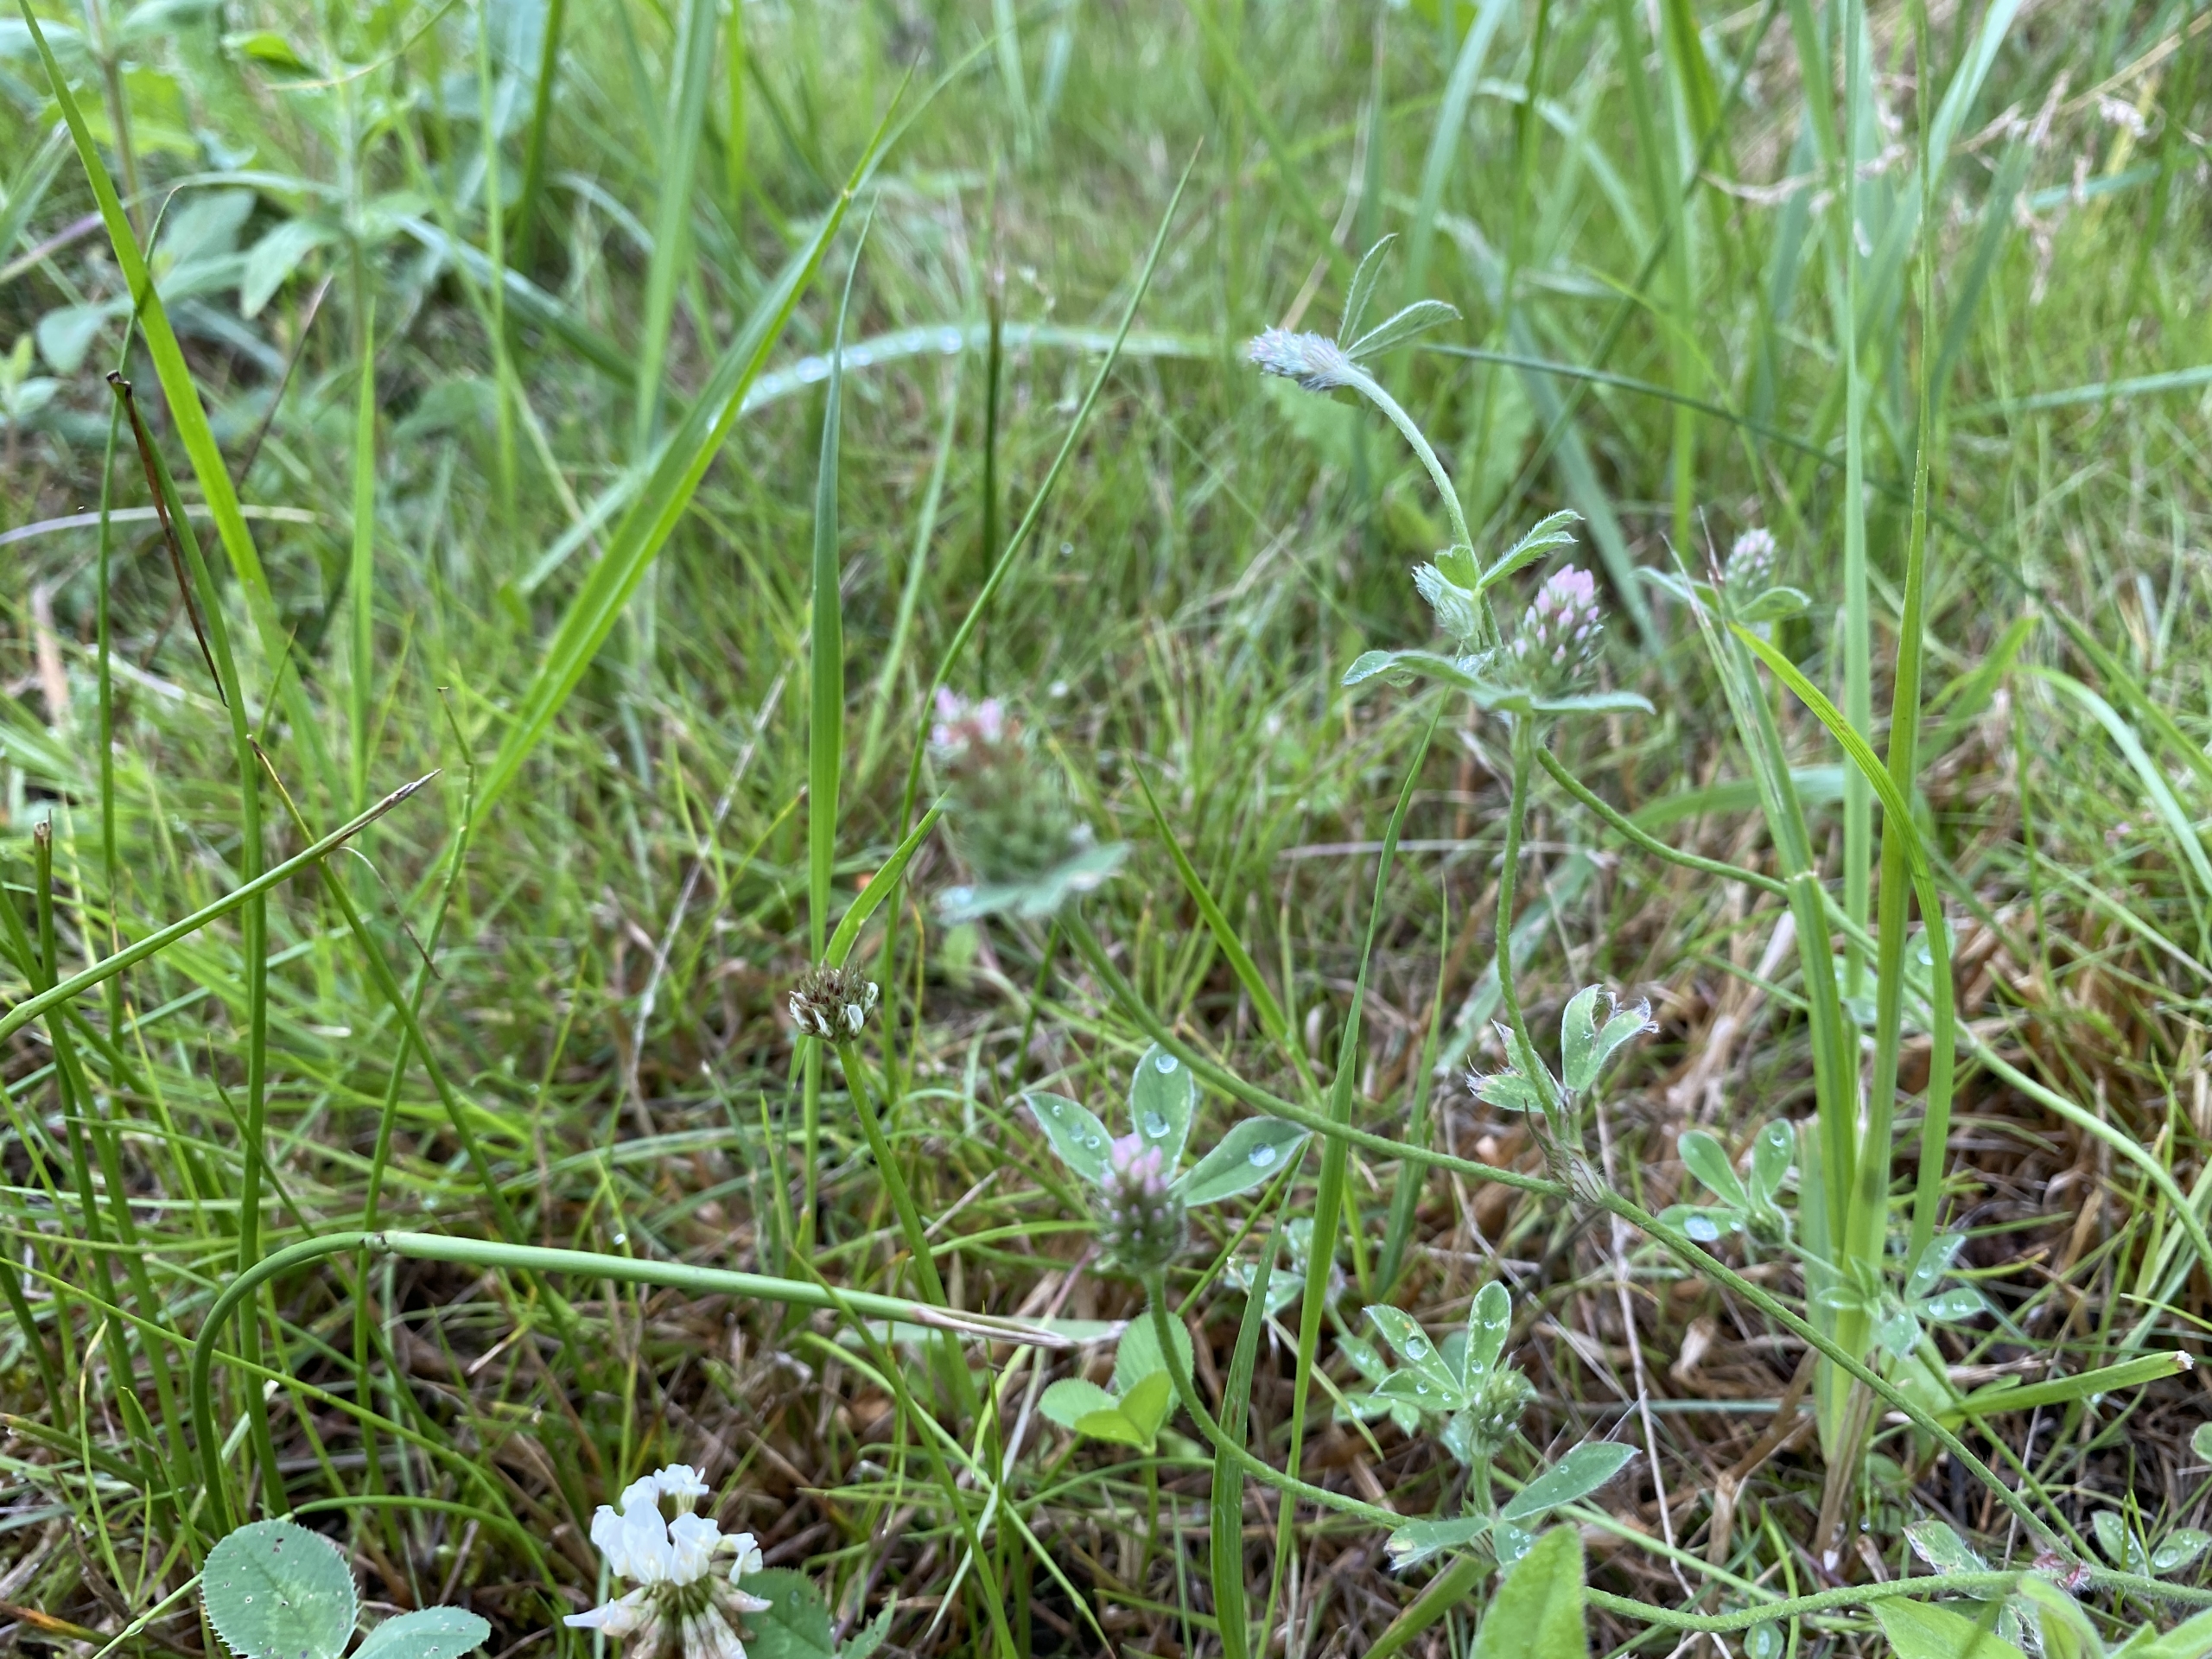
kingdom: Plantae
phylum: Tracheophyta
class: Magnoliopsida
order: Fabales
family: Fabaceae
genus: Trifolium
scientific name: Trifolium striatum
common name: Stribet kløver
